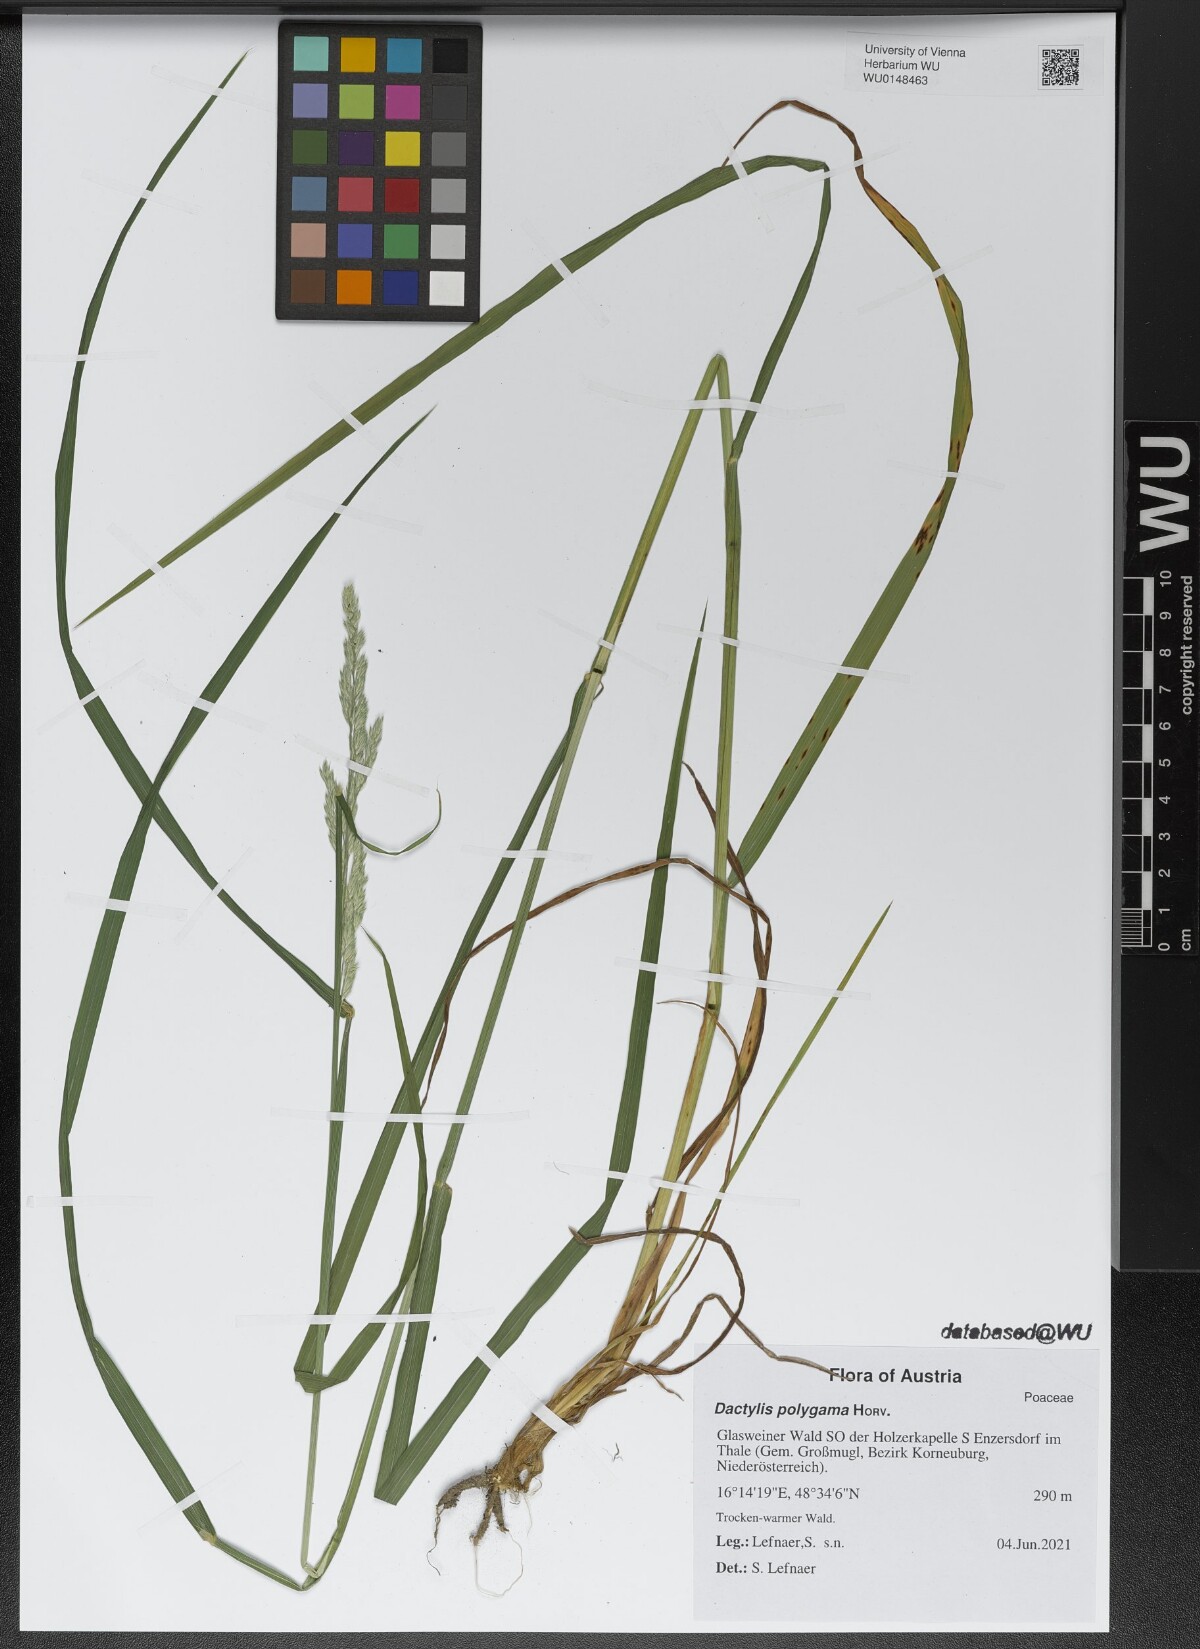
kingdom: Plantae
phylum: Tracheophyta
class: Liliopsida
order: Poales
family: Poaceae
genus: Dactylis
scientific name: Dactylis glomerata
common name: Orchardgrass
